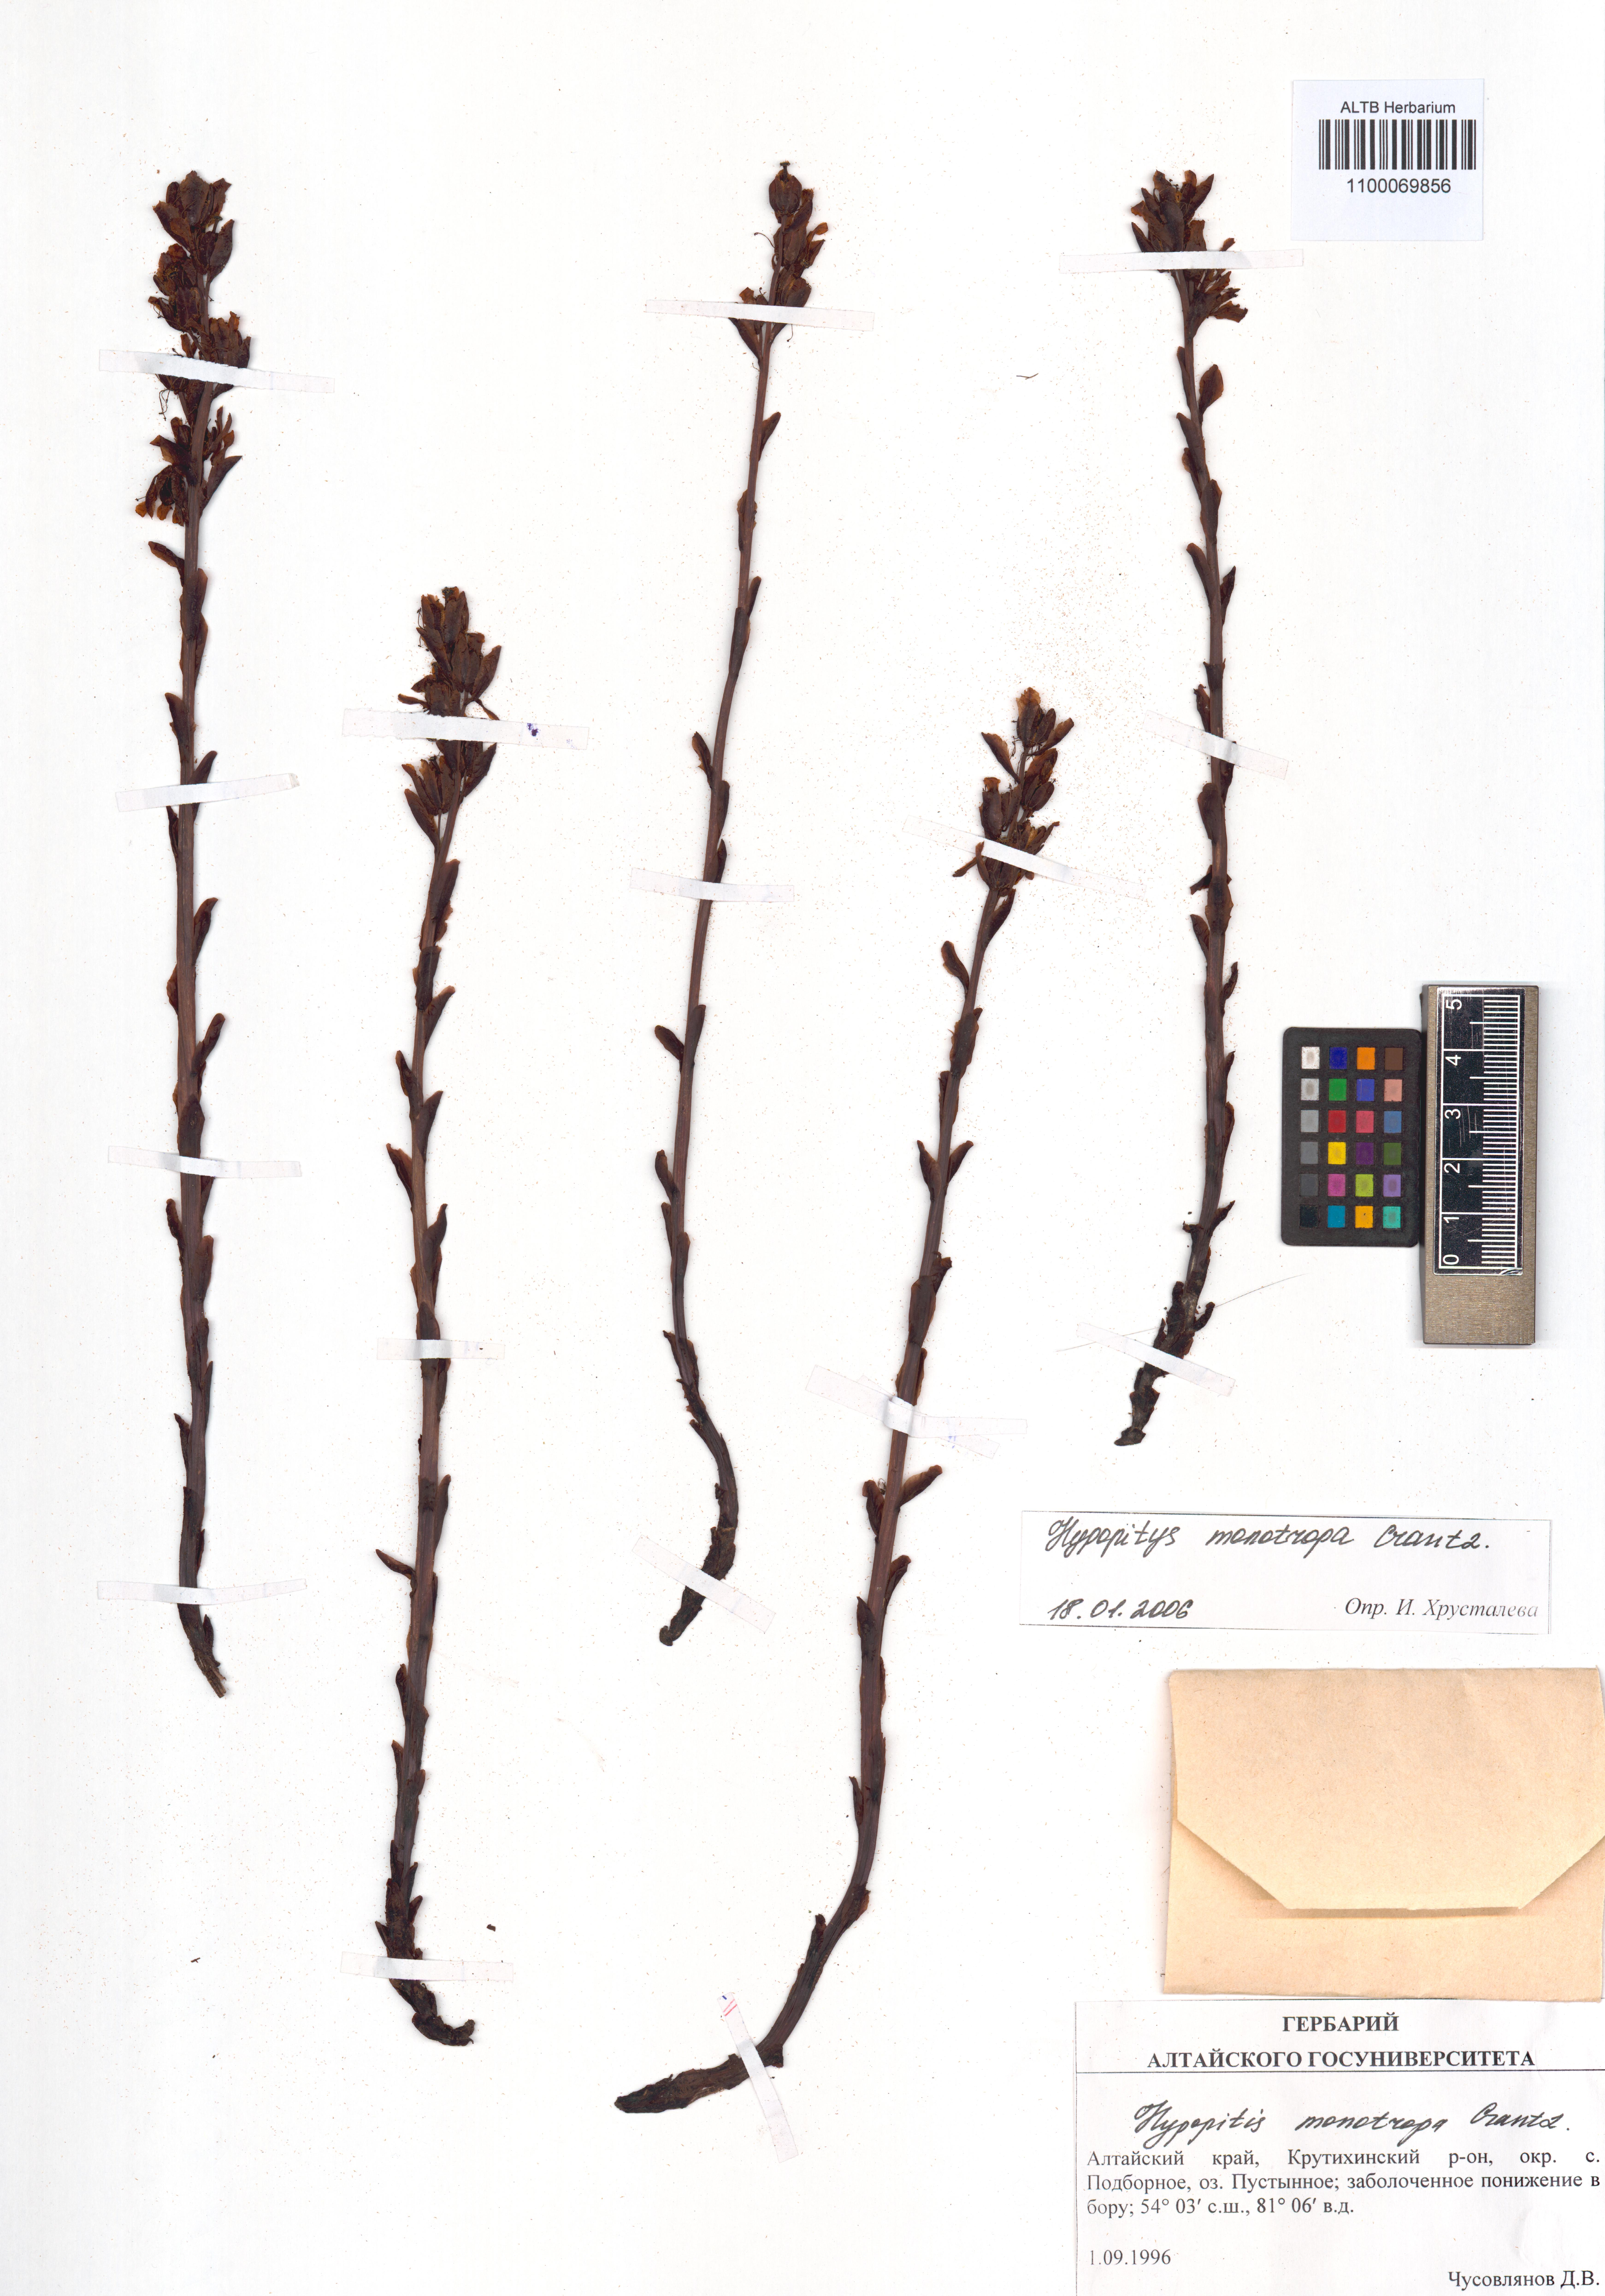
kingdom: Plantae
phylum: Tracheophyta
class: Magnoliopsida
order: Ericales
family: Ericaceae
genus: Hypopitys
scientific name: Hypopitys monotropa
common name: Yellow bird's-nest
